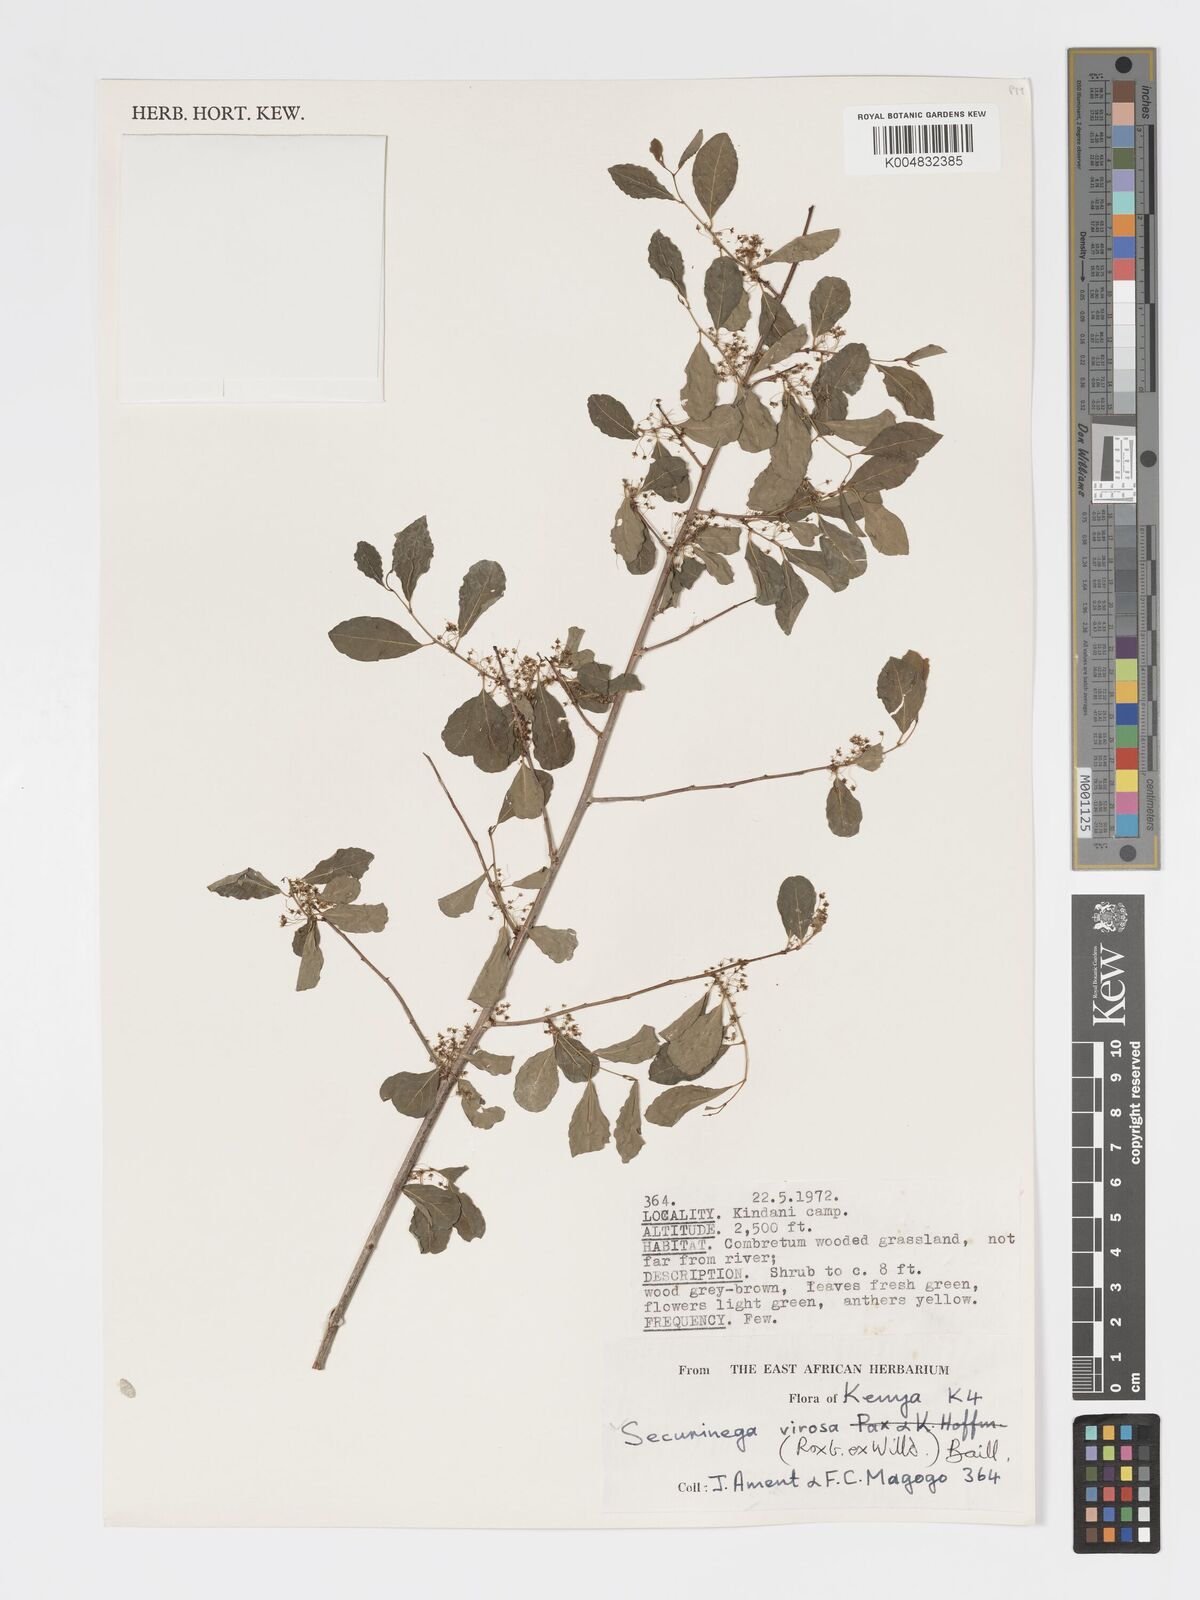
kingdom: Plantae
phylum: Tracheophyta
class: Magnoliopsida
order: Malpighiales
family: Phyllanthaceae
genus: Flueggea
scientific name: Flueggea
